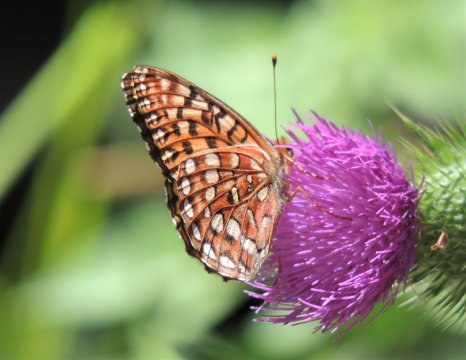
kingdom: Animalia
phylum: Arthropoda
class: Insecta
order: Lepidoptera
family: Nymphalidae
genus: Speyeria
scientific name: Speyeria hydaspe
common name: Hydaspe Fritillary
